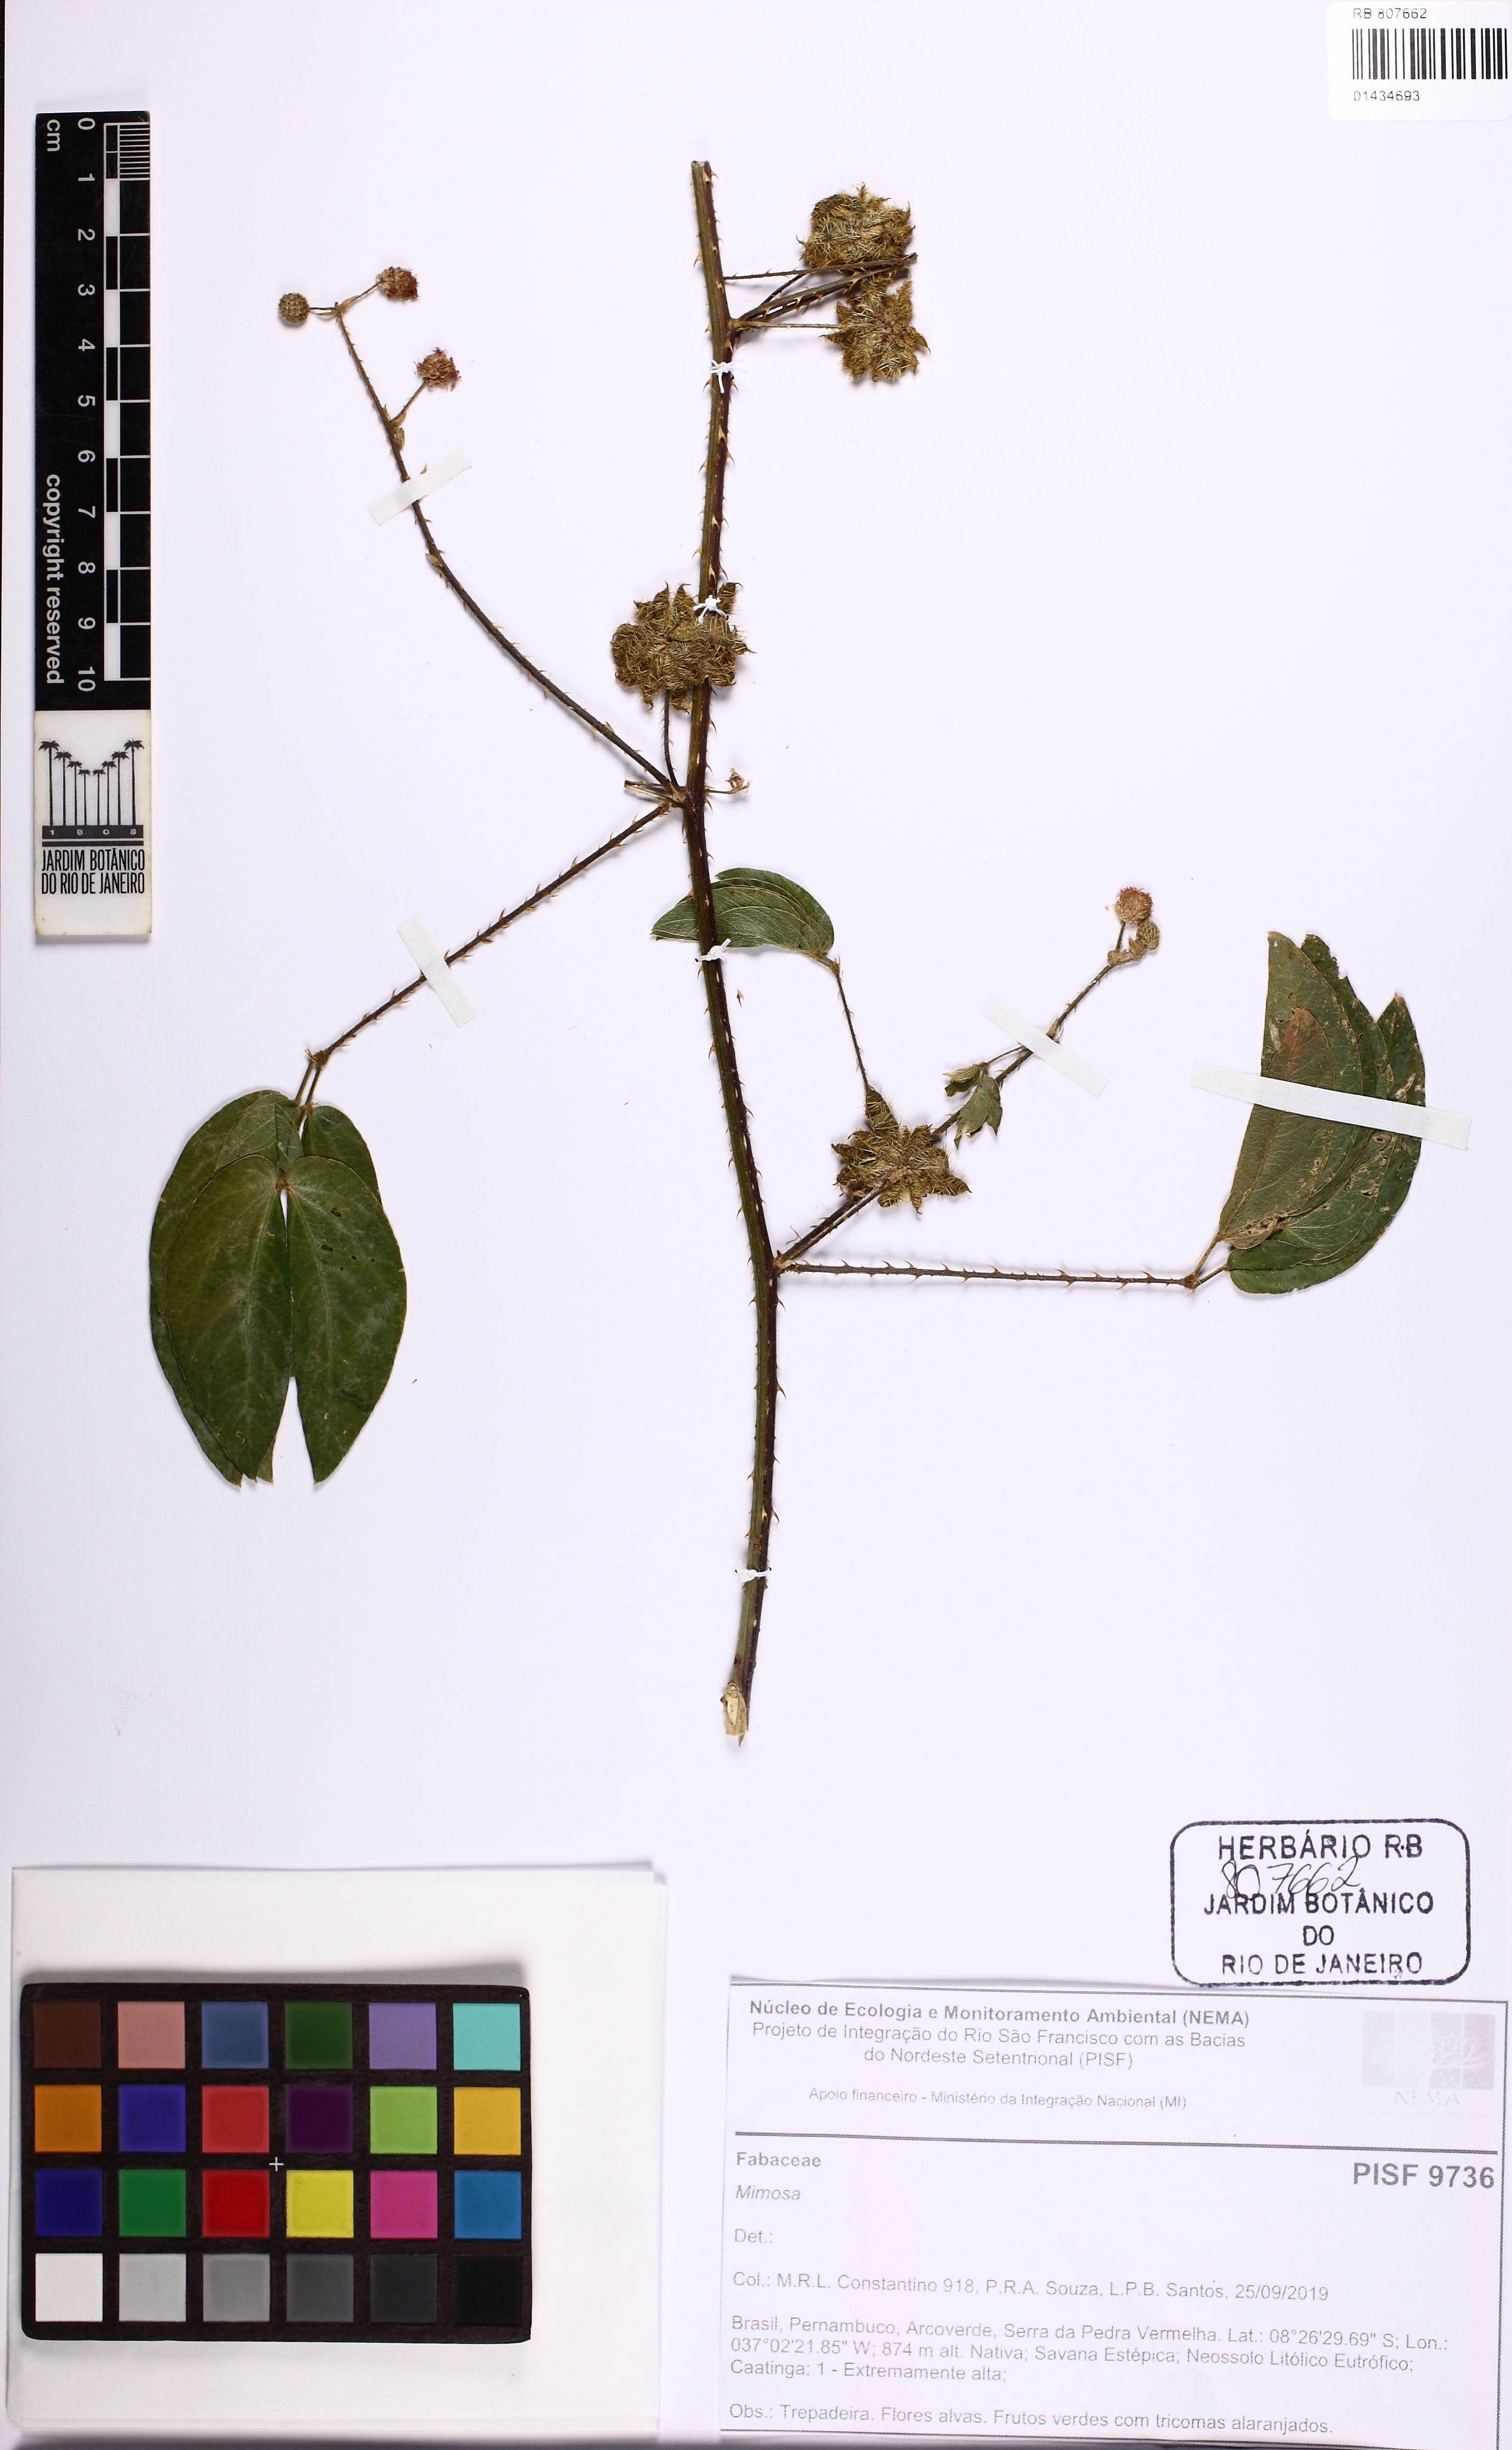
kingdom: Plantae
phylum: Tracheophyta
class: Magnoliopsida
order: Fabales
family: Fabaceae
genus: Mimosa
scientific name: Mimosa
